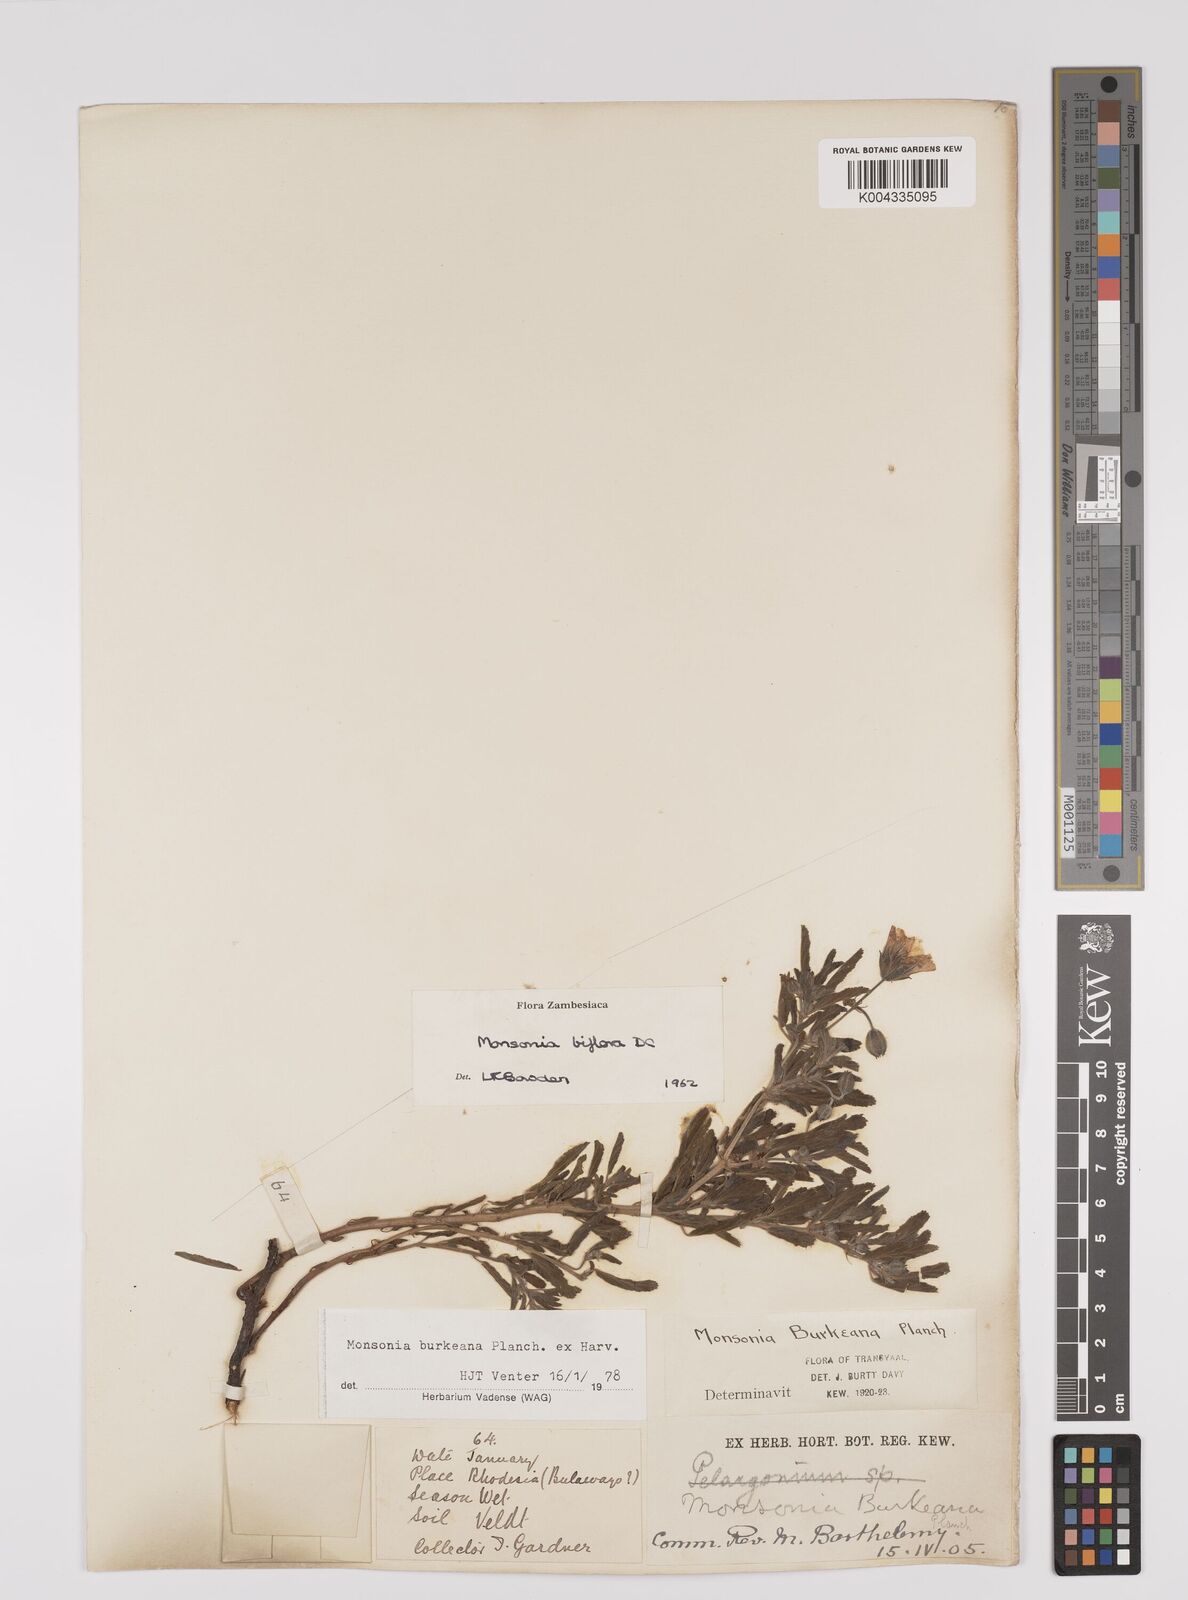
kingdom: Plantae
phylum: Tracheophyta
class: Magnoliopsida
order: Geraniales
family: Geraniaceae
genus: Monsonia
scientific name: Monsonia biflora
